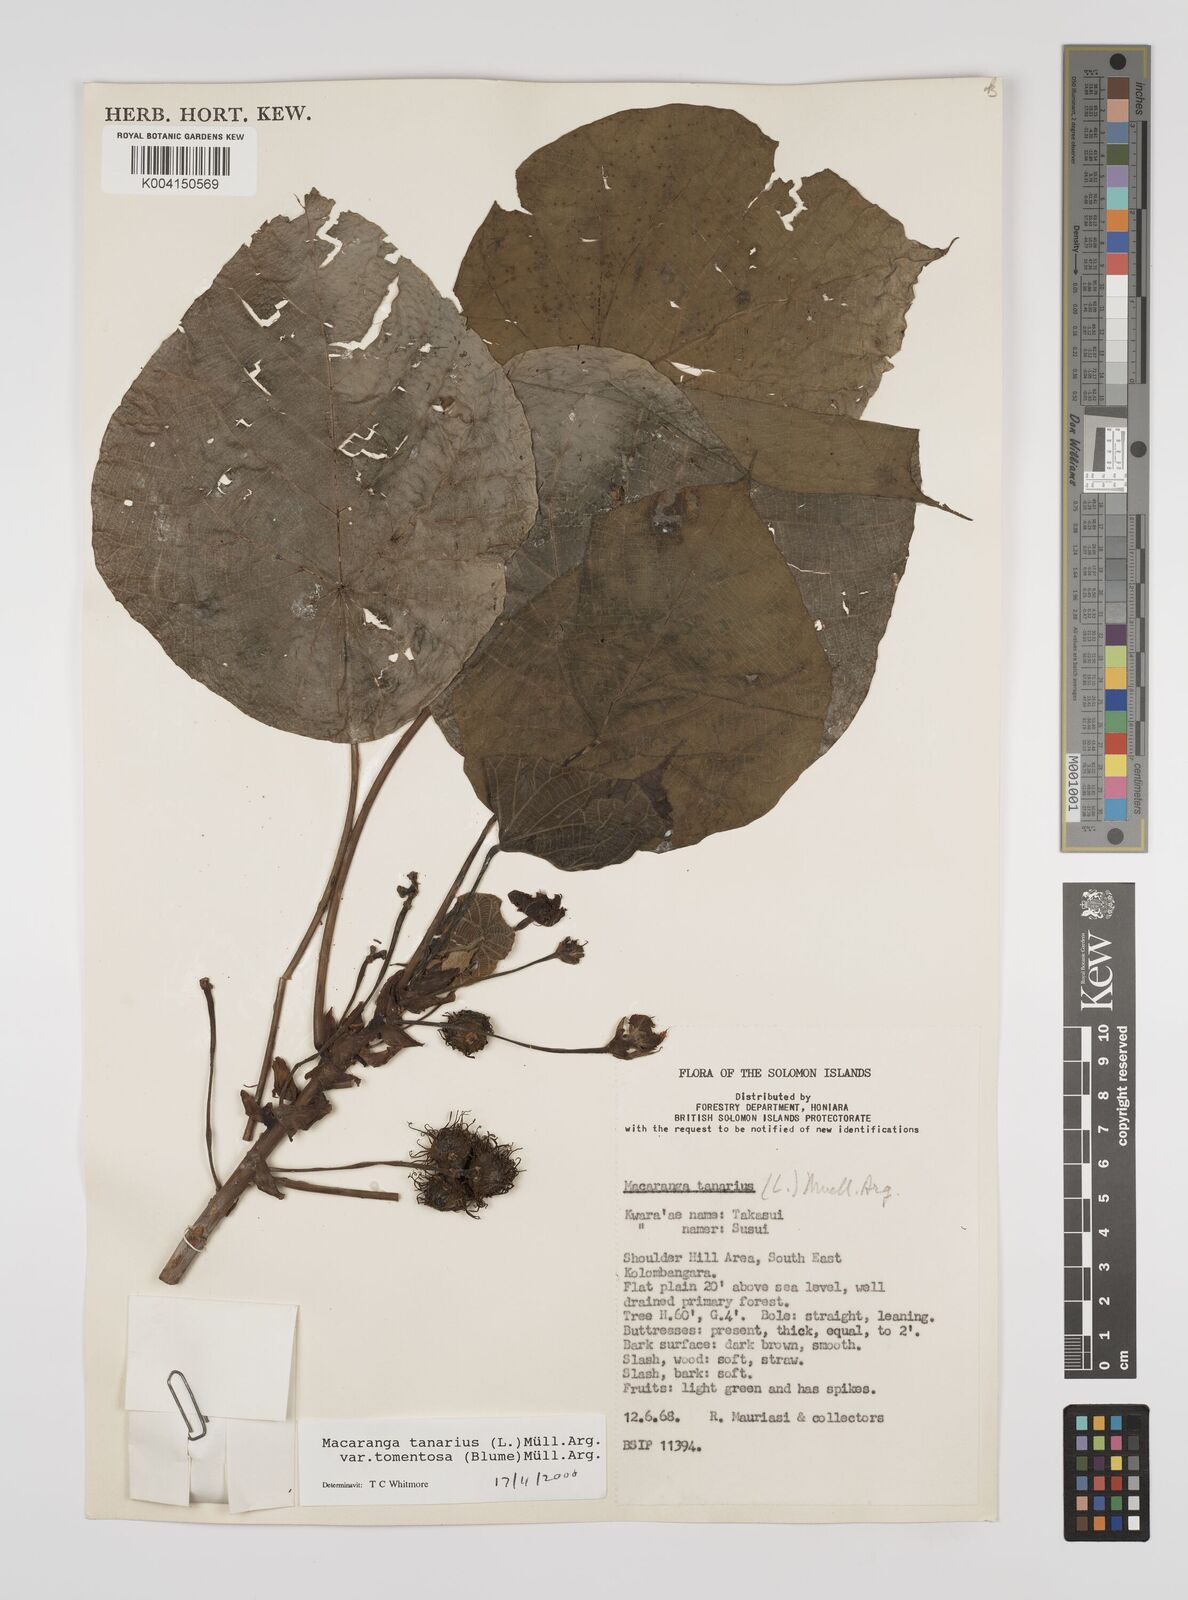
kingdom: Plantae
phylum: Tracheophyta
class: Magnoliopsida
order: Malpighiales
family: Euphorbiaceae
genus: Macaranga
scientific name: Macaranga tanarius
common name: Parasol leaf tree
